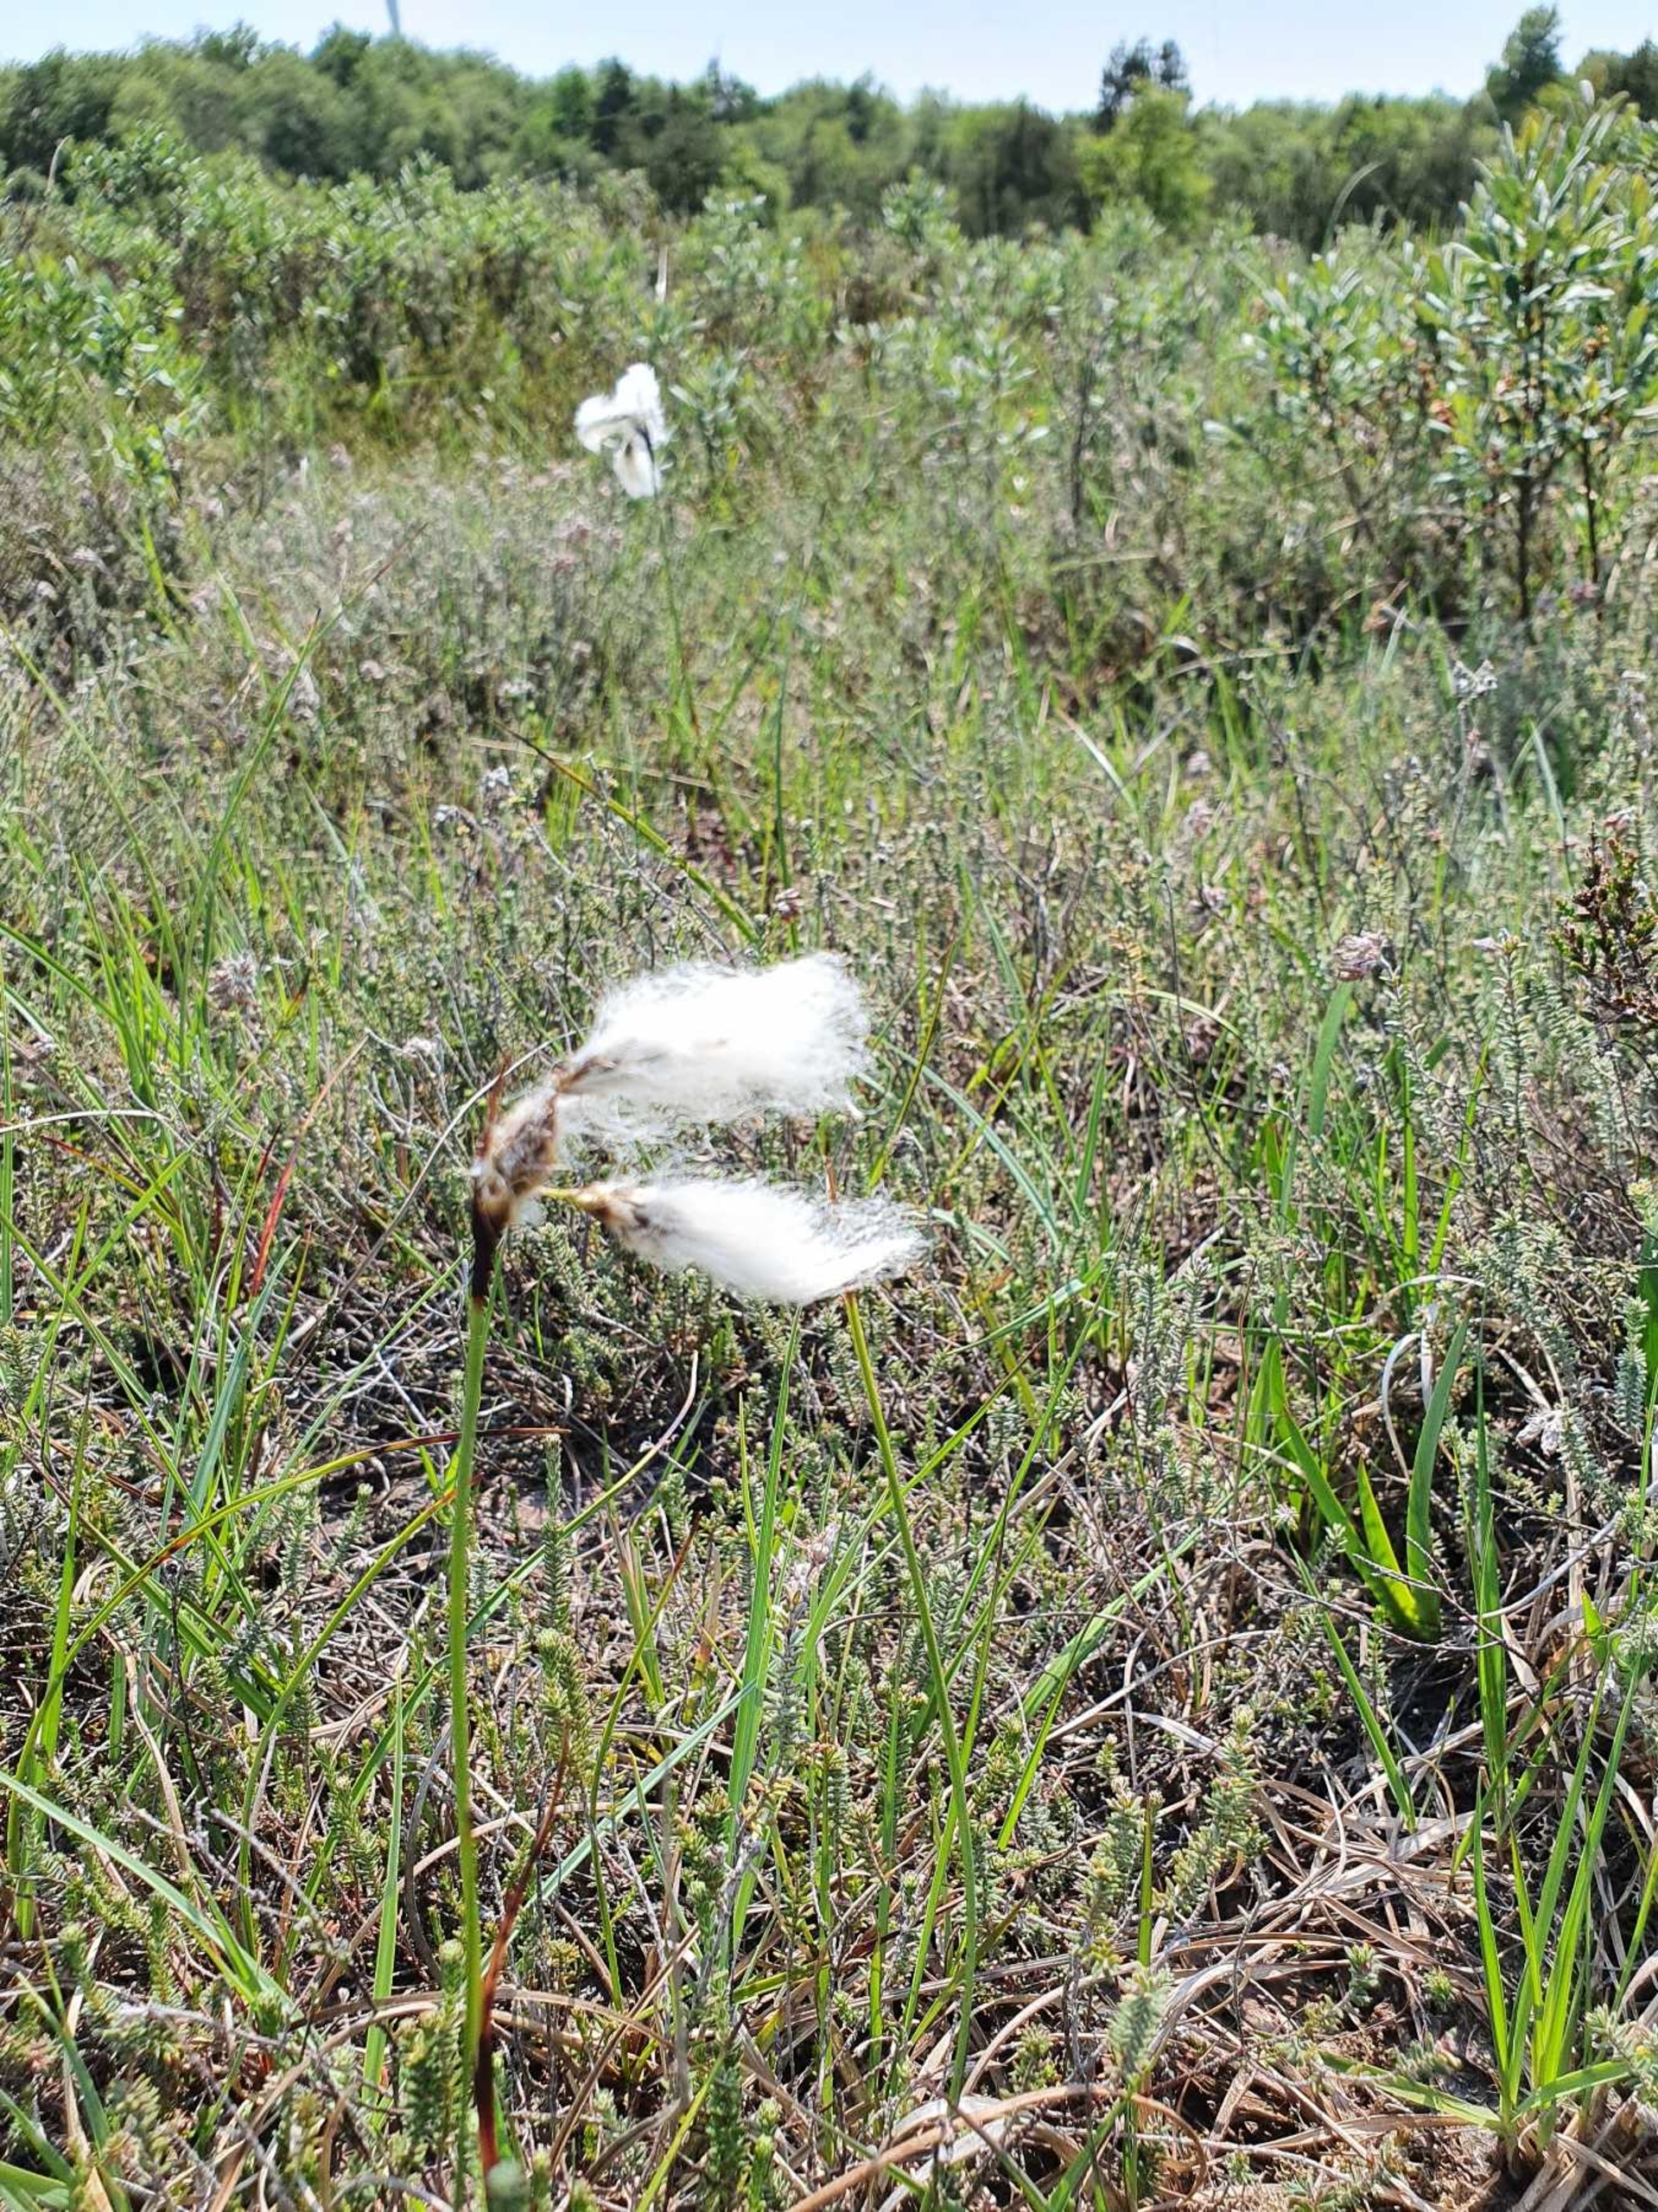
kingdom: Plantae
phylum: Tracheophyta
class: Liliopsida
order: Poales
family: Cyperaceae
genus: Eriophorum
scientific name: Eriophorum angustifolium
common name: Smalbladet kæruld
